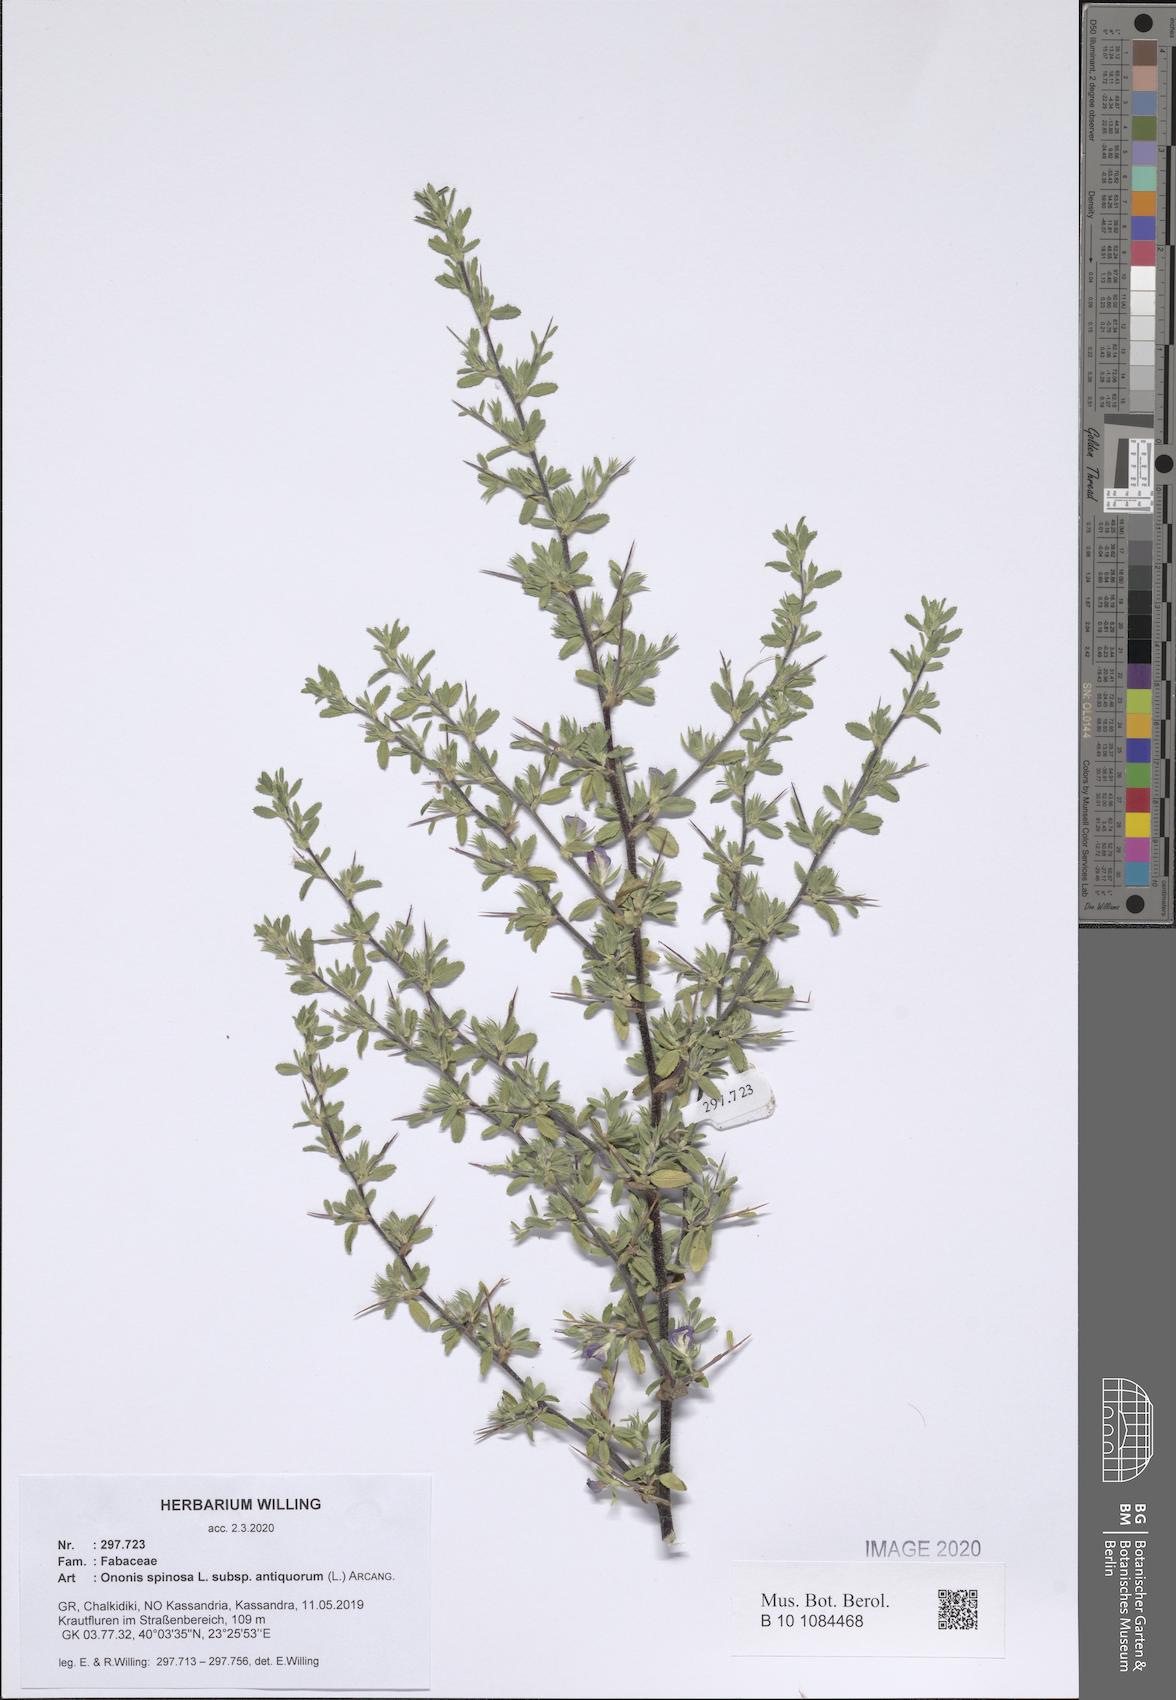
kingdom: Plantae
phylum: Tracheophyta
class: Magnoliopsida
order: Fabales
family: Fabaceae
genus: Ononis
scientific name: Ononis spinosa
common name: Spiny restharrow
